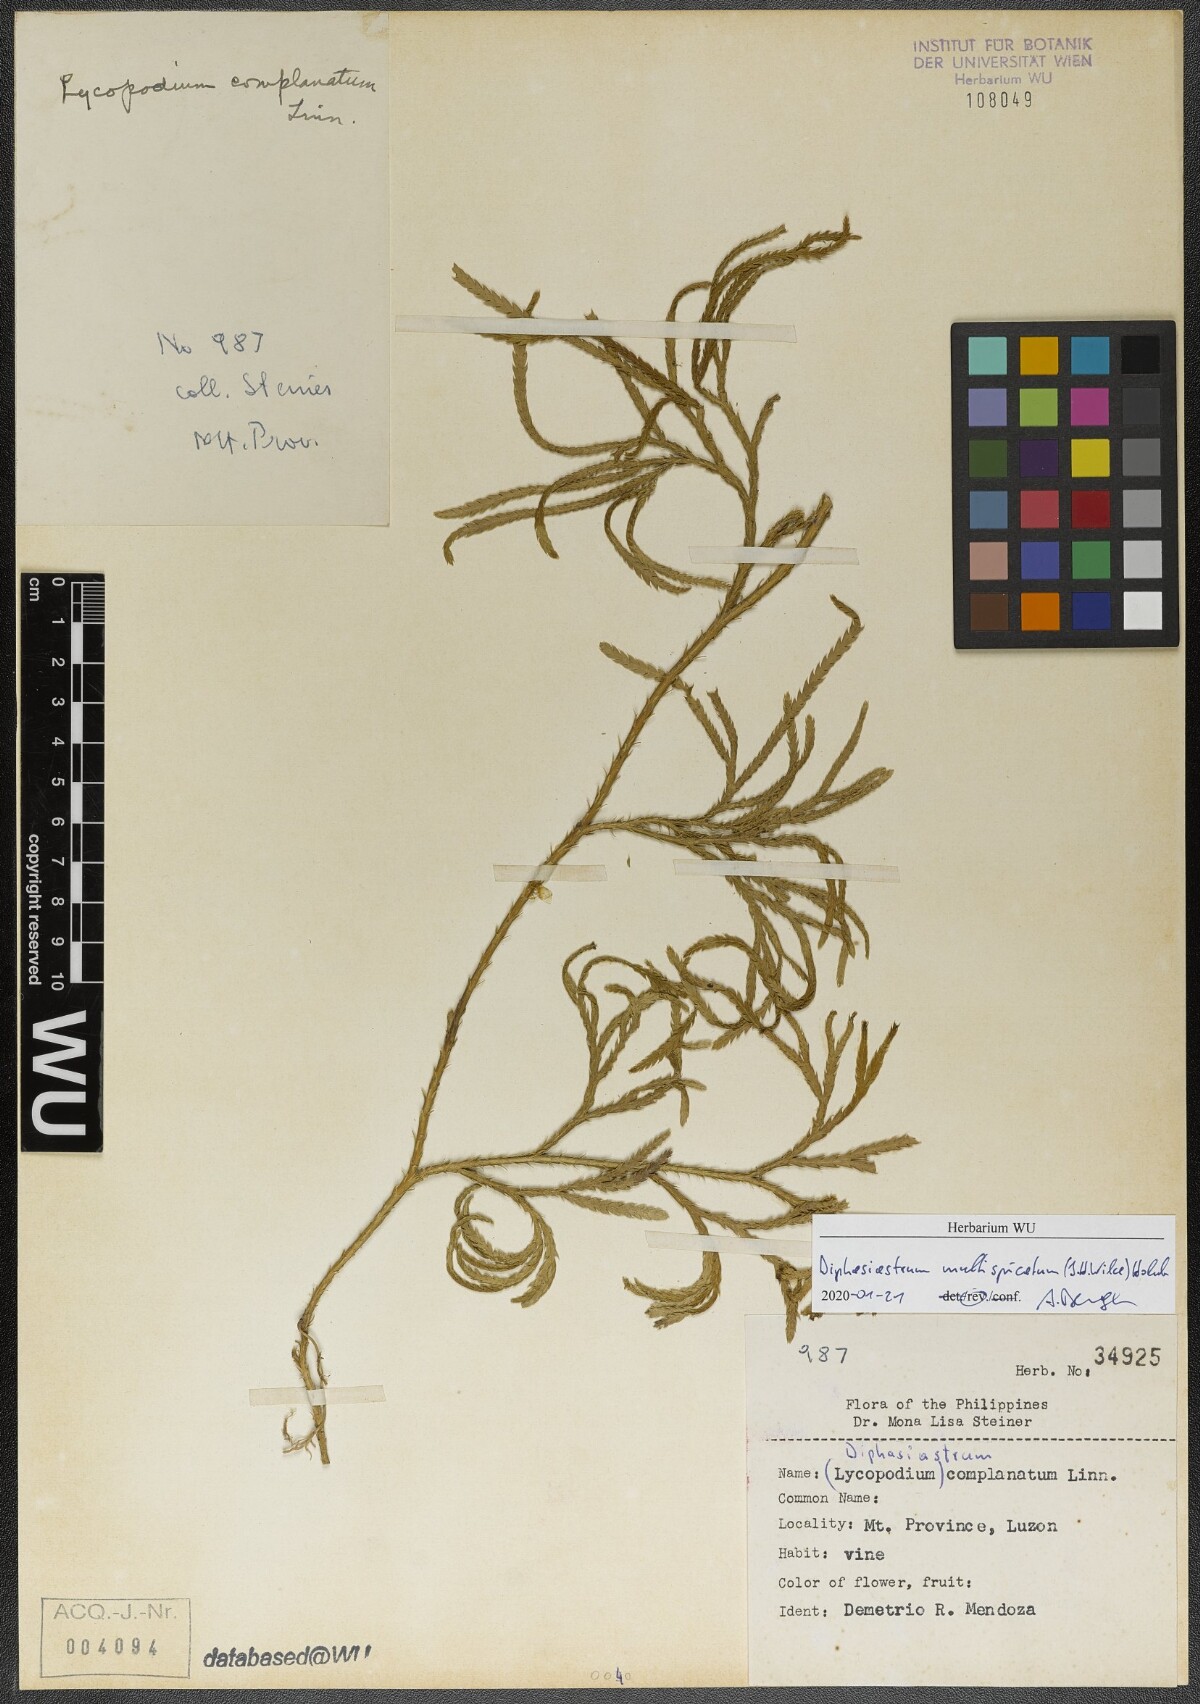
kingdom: Plantae
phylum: Tracheophyta
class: Lycopodiopsida
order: Lycopodiales
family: Lycopodiaceae
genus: Diphasiastrum
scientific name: Diphasiastrum multispicatum
